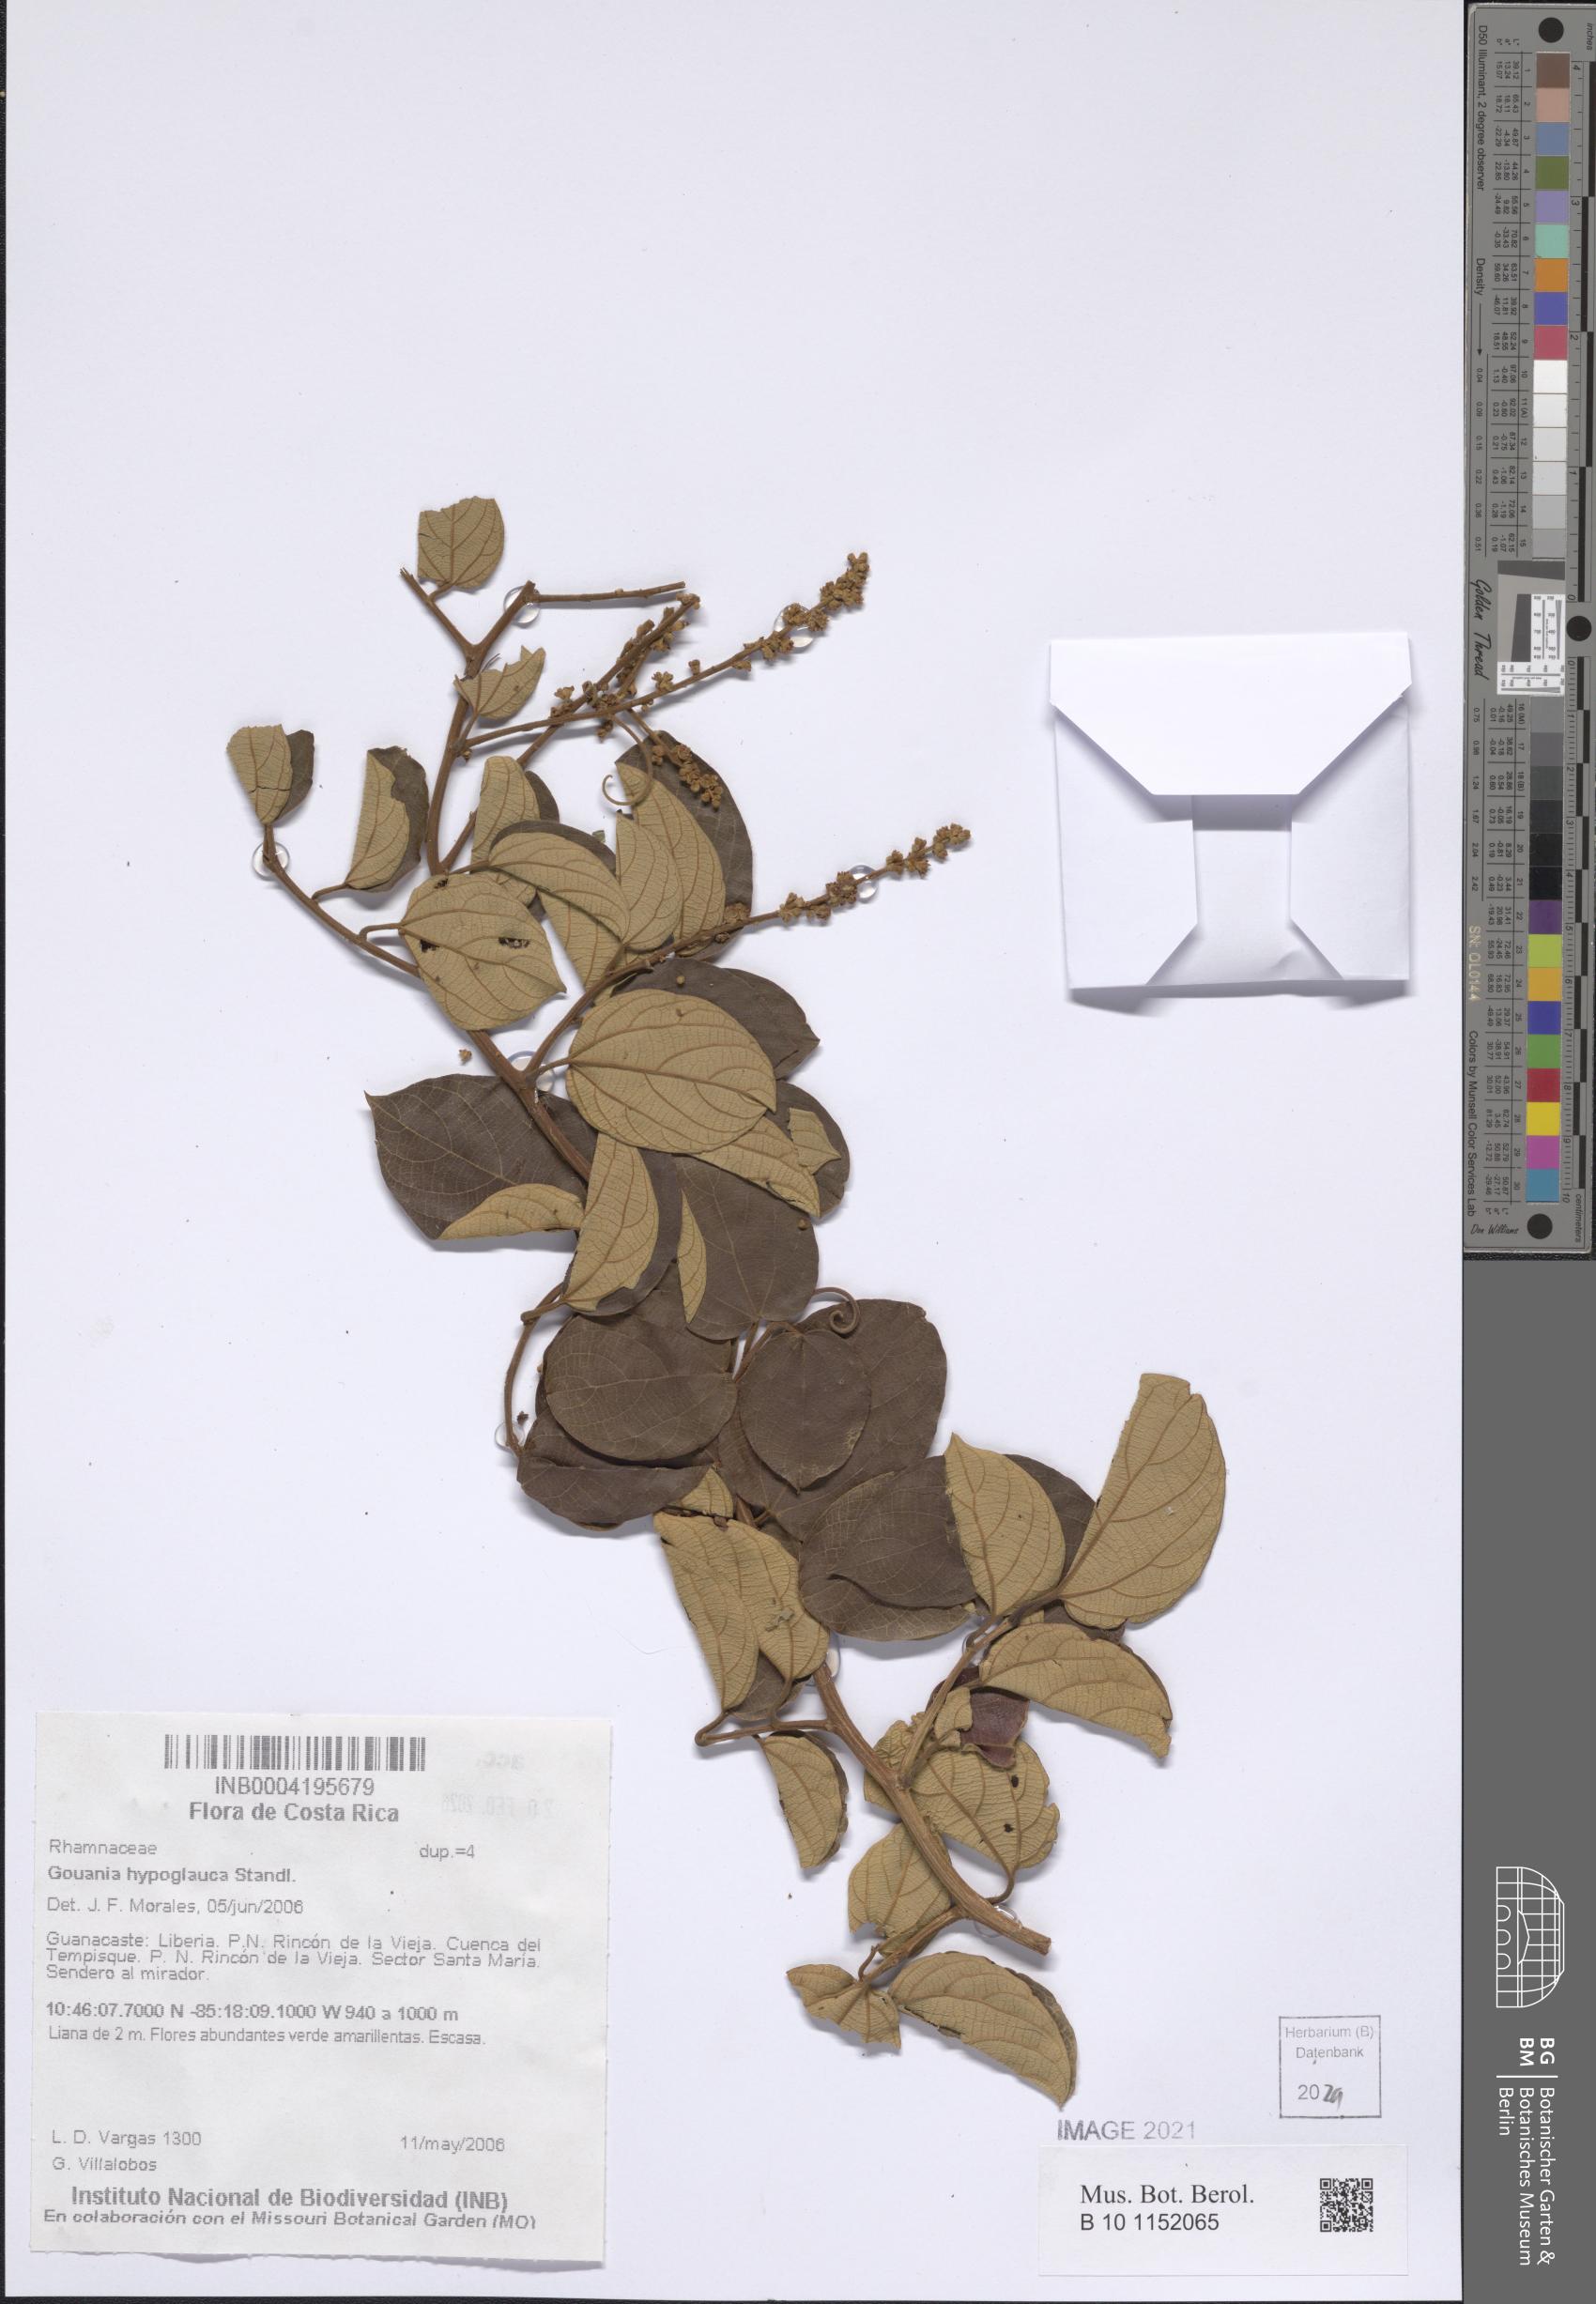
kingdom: Plantae
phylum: Tracheophyta
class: Magnoliopsida
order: Rosales
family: Rhamnaceae
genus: Gouania
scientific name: Gouania hypoglauca
